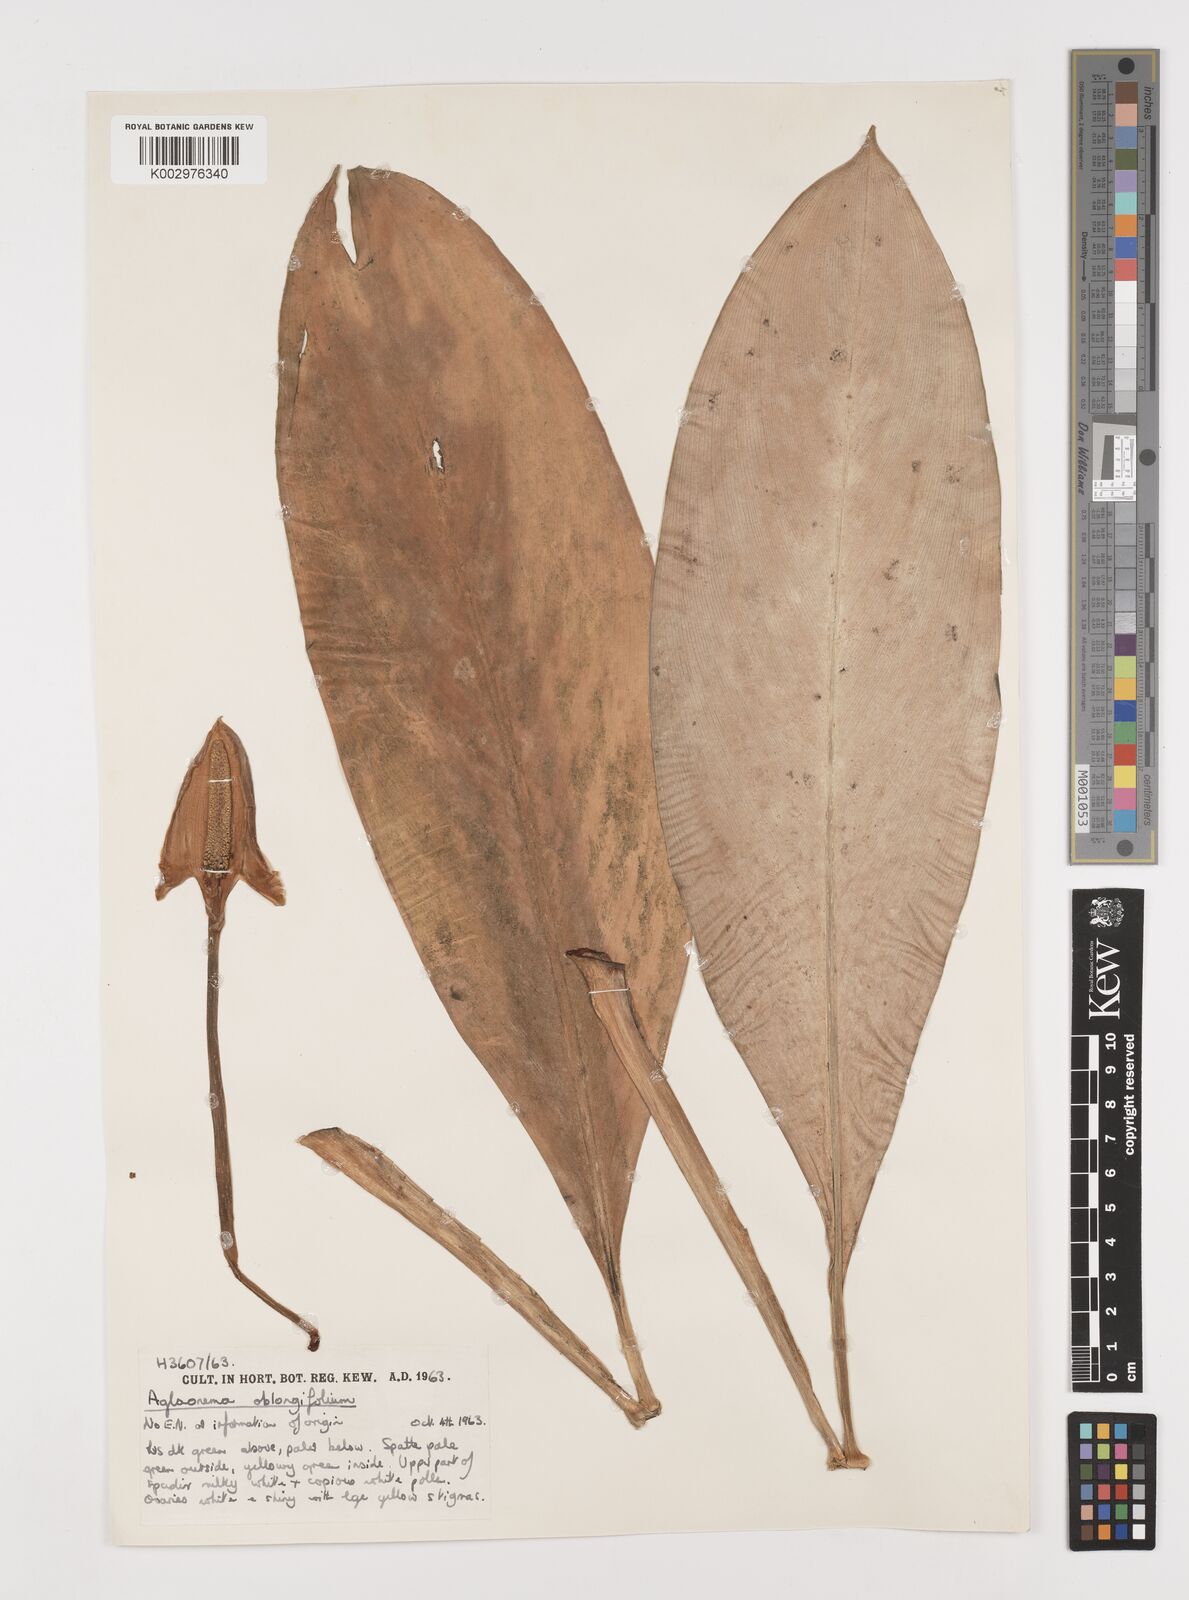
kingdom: Plantae
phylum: Tracheophyta
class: Liliopsida
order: Alismatales
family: Araceae
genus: Aglaonema
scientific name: Aglaonema nitidum
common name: Aglaonema aroid
